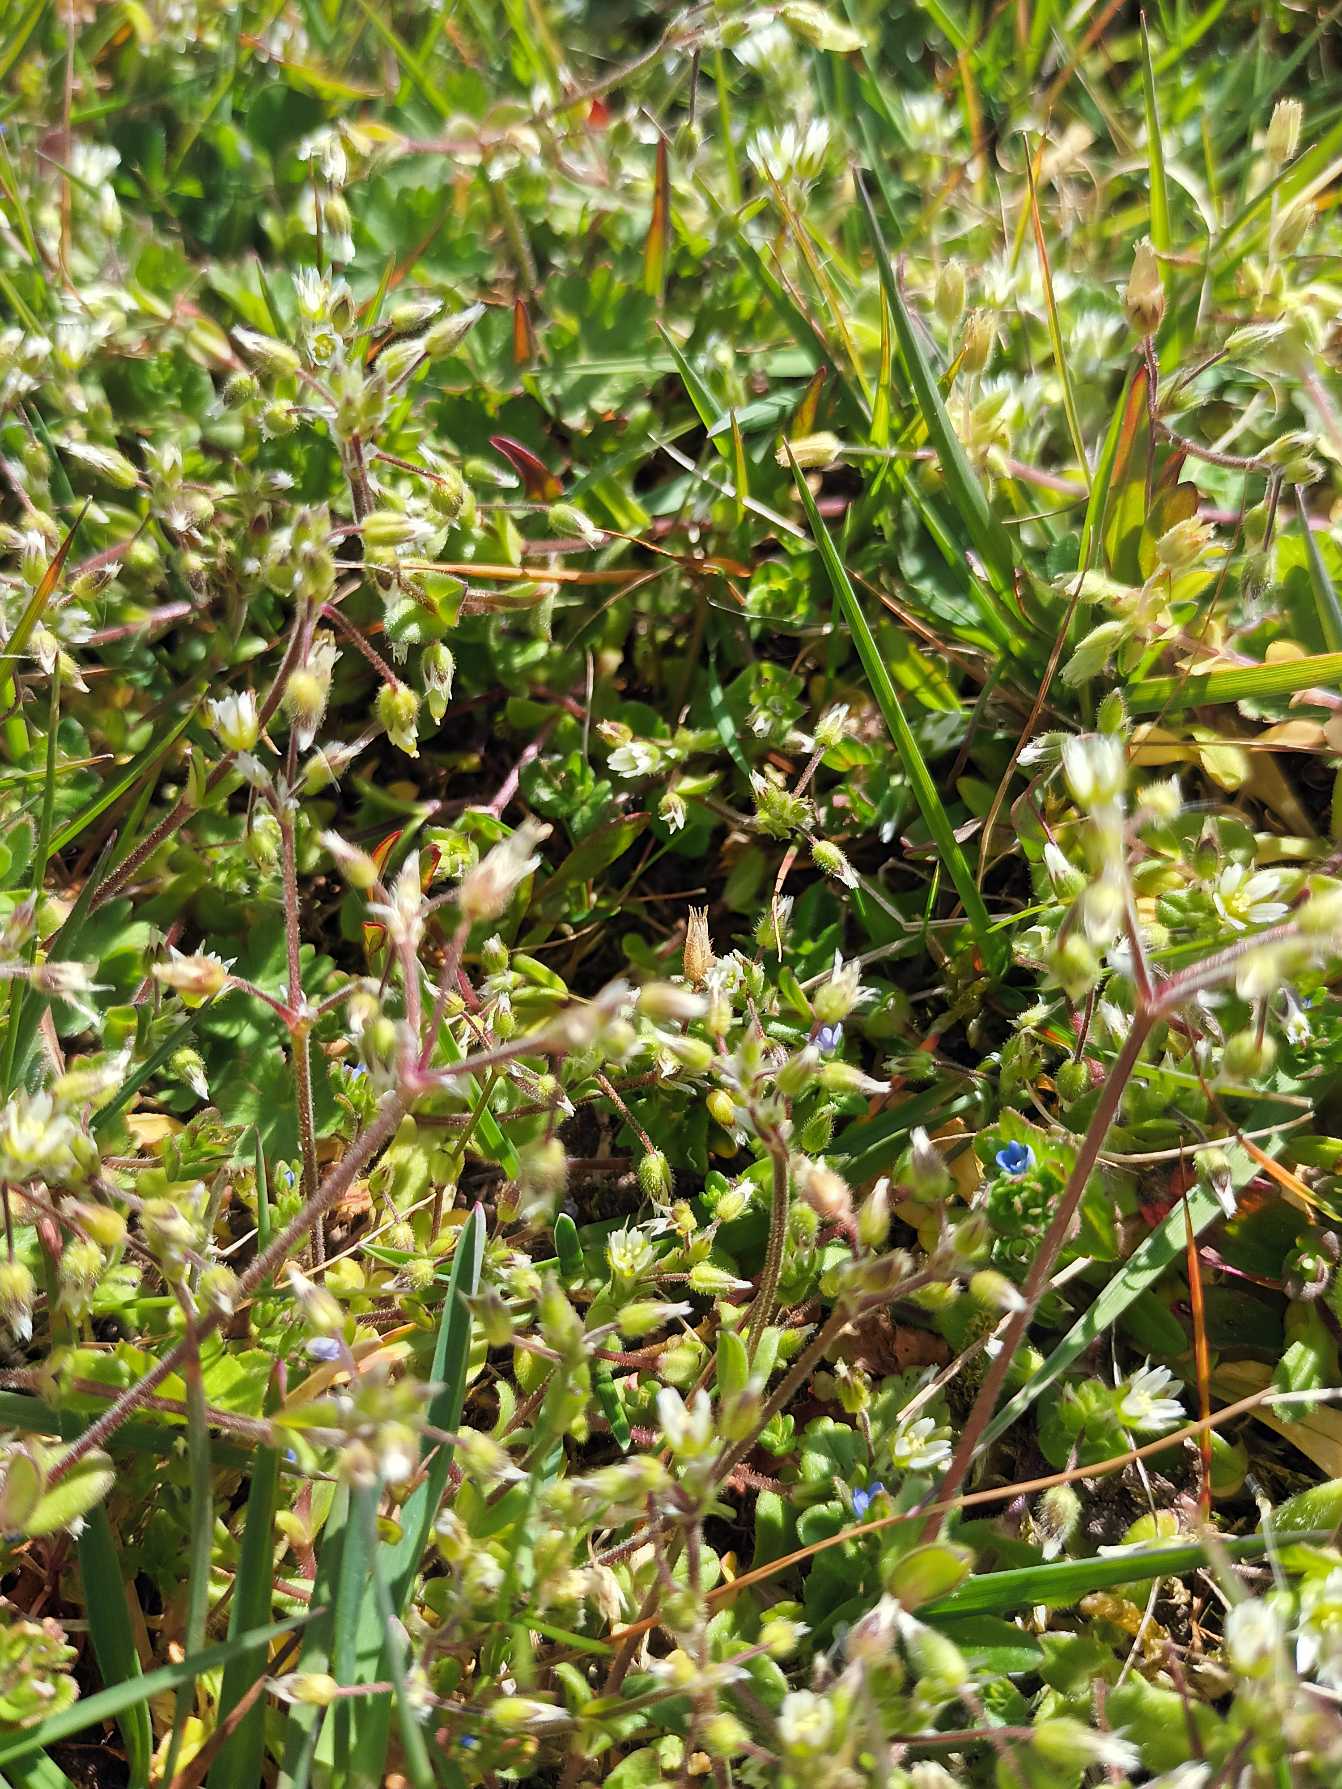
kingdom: Plantae
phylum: Tracheophyta
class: Magnoliopsida
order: Caryophyllales
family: Caryophyllaceae
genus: Cerastium
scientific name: Cerastium semidecandrum
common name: Femhannet hønsetarm
